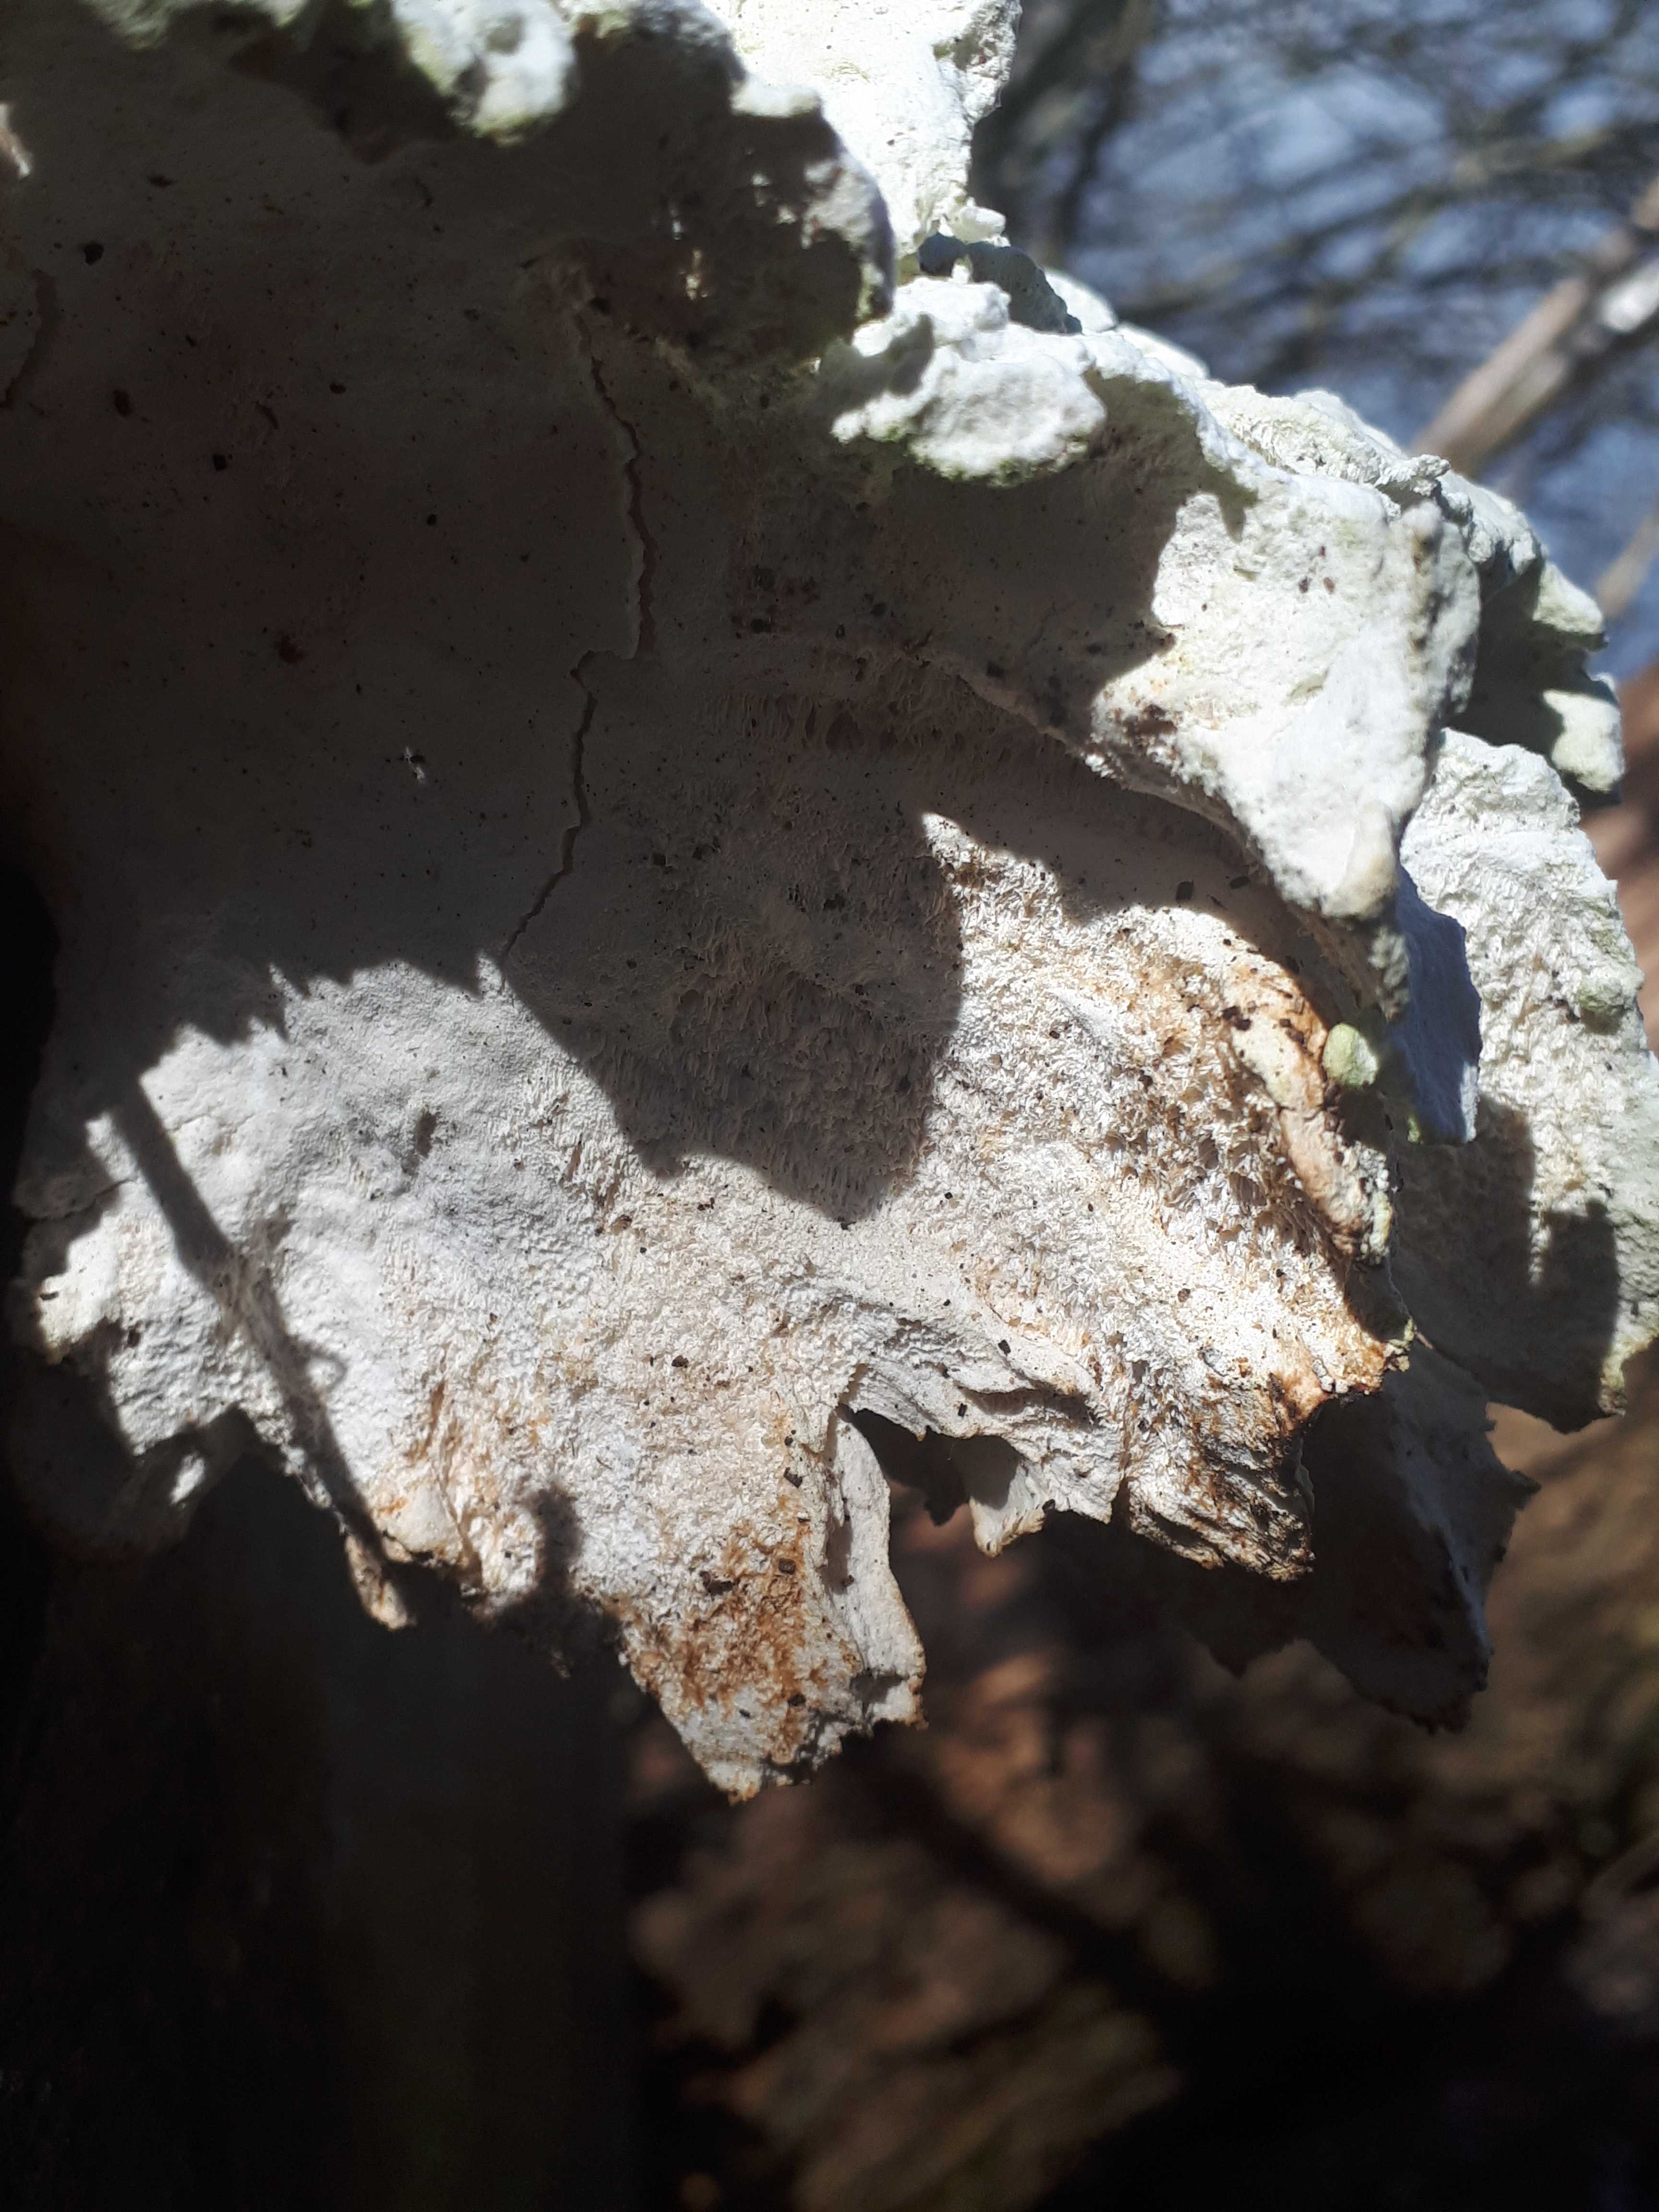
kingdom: Fungi
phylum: Basidiomycota
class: Agaricomycetes
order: Polyporales
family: Laetiporaceae
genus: Laetiporus
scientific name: Laetiporus sulphureus
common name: svovlporesvamp
